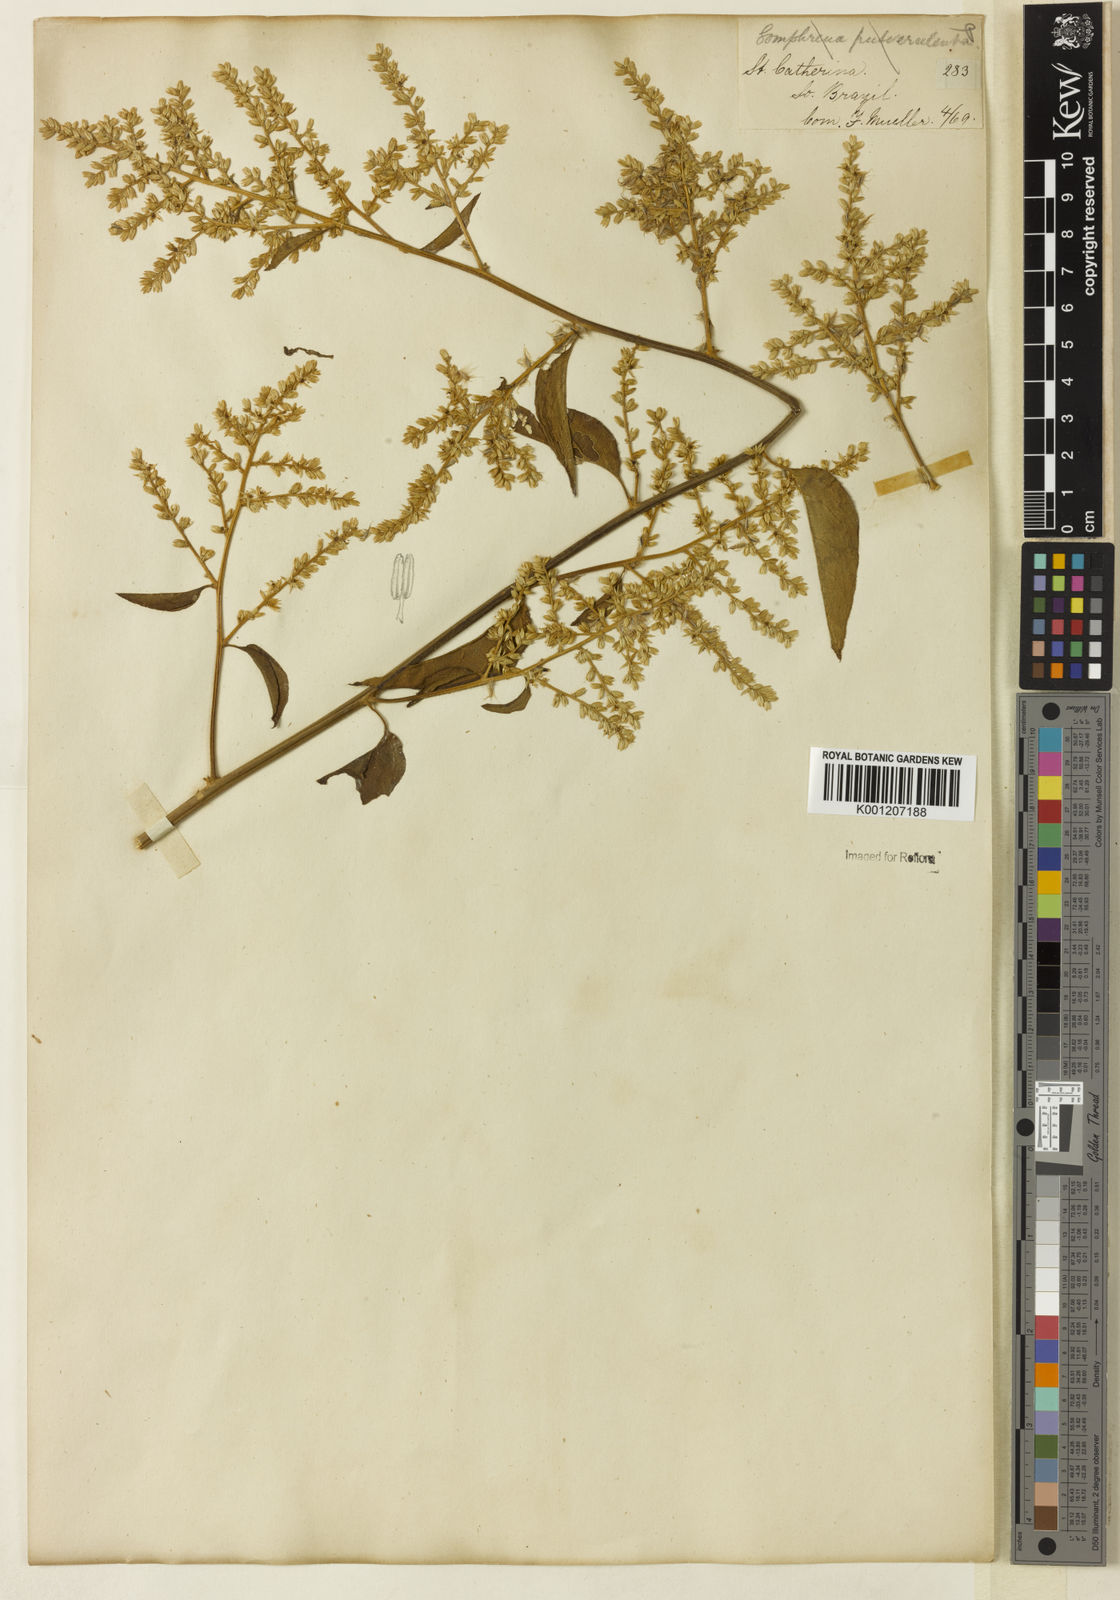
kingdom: Plantae
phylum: Tracheophyta
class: Magnoliopsida
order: Caryophyllales
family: Amaranthaceae
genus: Chamissoa
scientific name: Chamissoa
